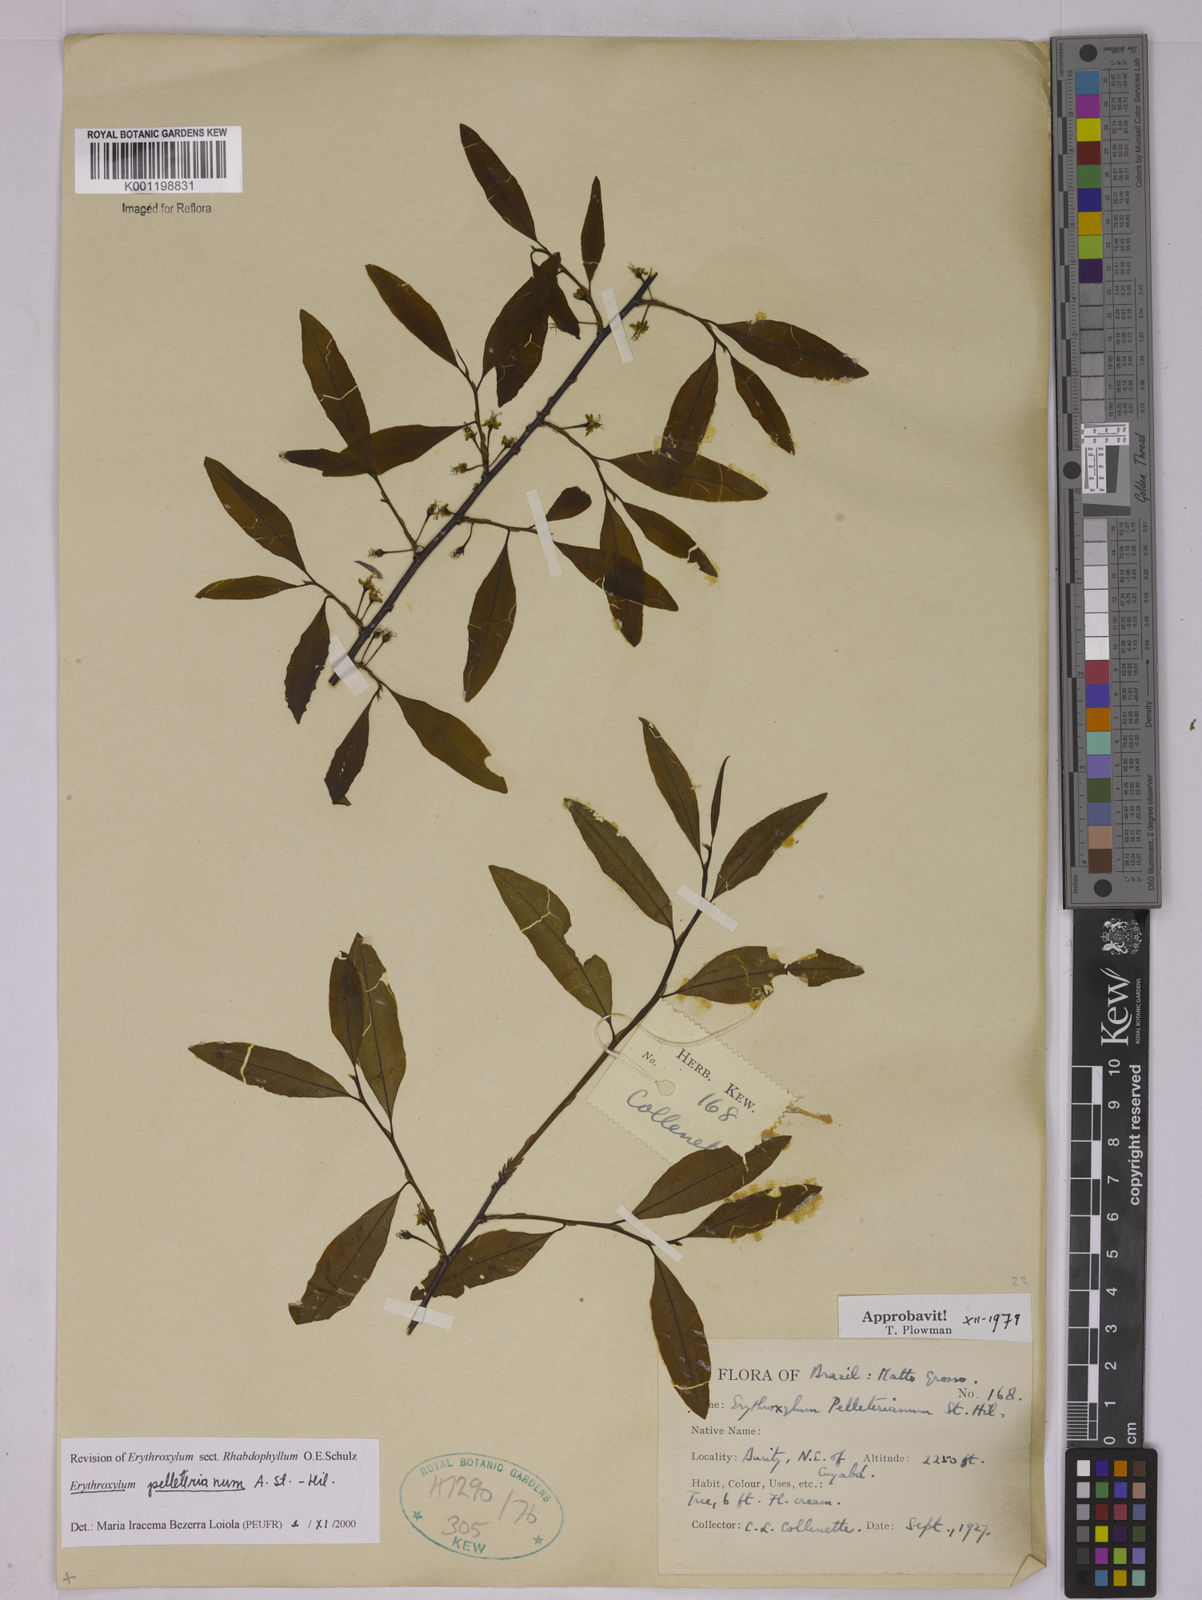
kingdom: Plantae
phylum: Tracheophyta
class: Magnoliopsida
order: Malpighiales
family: Erythroxylaceae
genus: Erythroxylum
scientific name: Erythroxylum pelleterianum
